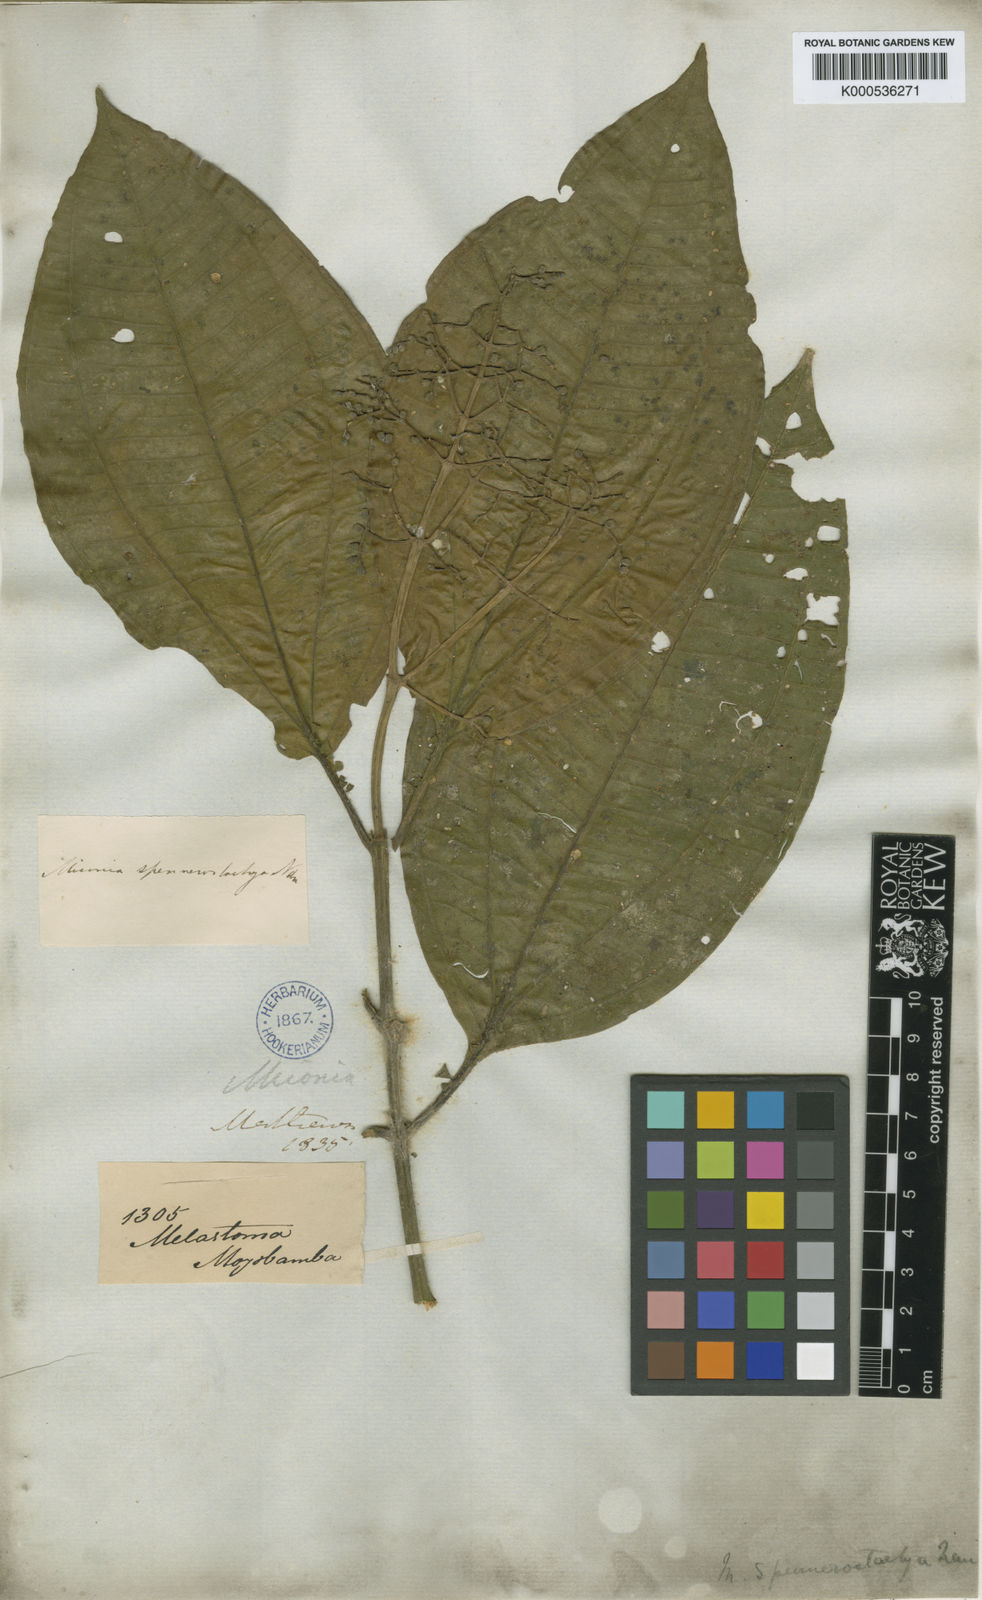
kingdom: Plantae
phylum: Tracheophyta
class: Magnoliopsida
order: Myrtales
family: Melastomataceae
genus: Miconia
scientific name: Miconia spennerostachya
